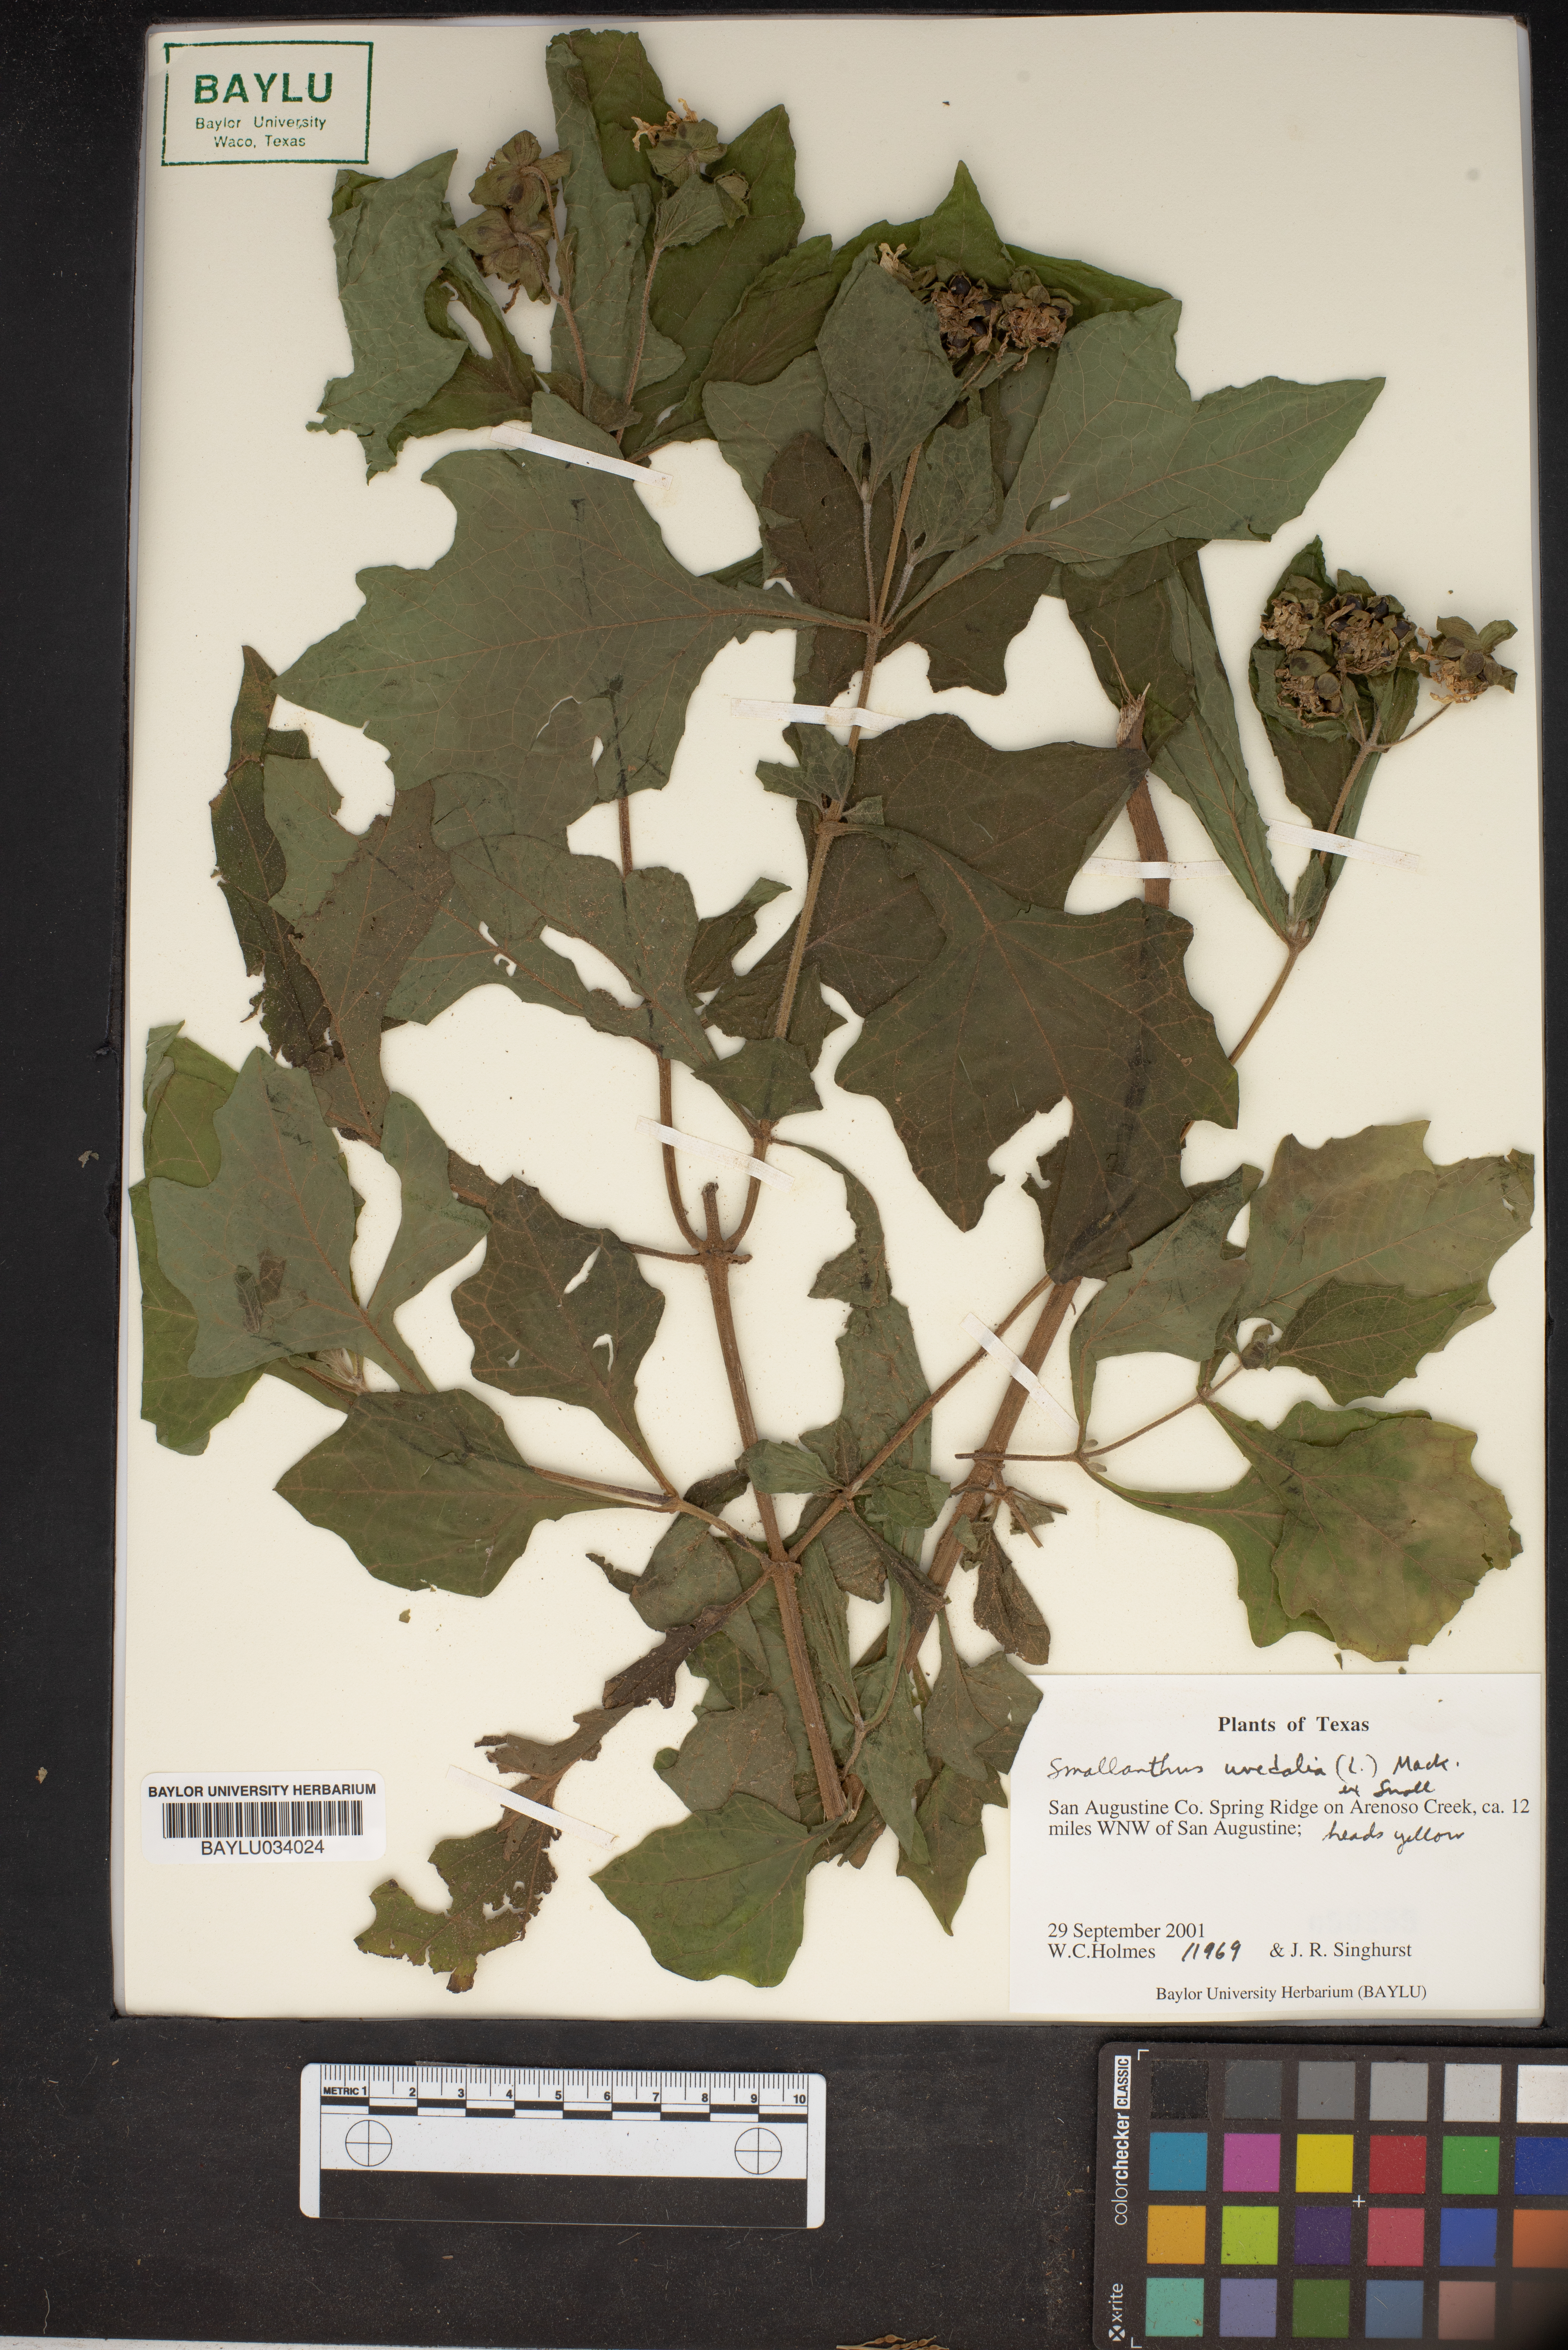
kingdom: Plantae
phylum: Tracheophyta
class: Magnoliopsida
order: Asterales
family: Asteraceae
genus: Smallanthus
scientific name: Smallanthus uvedalia
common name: Bear's-foot
